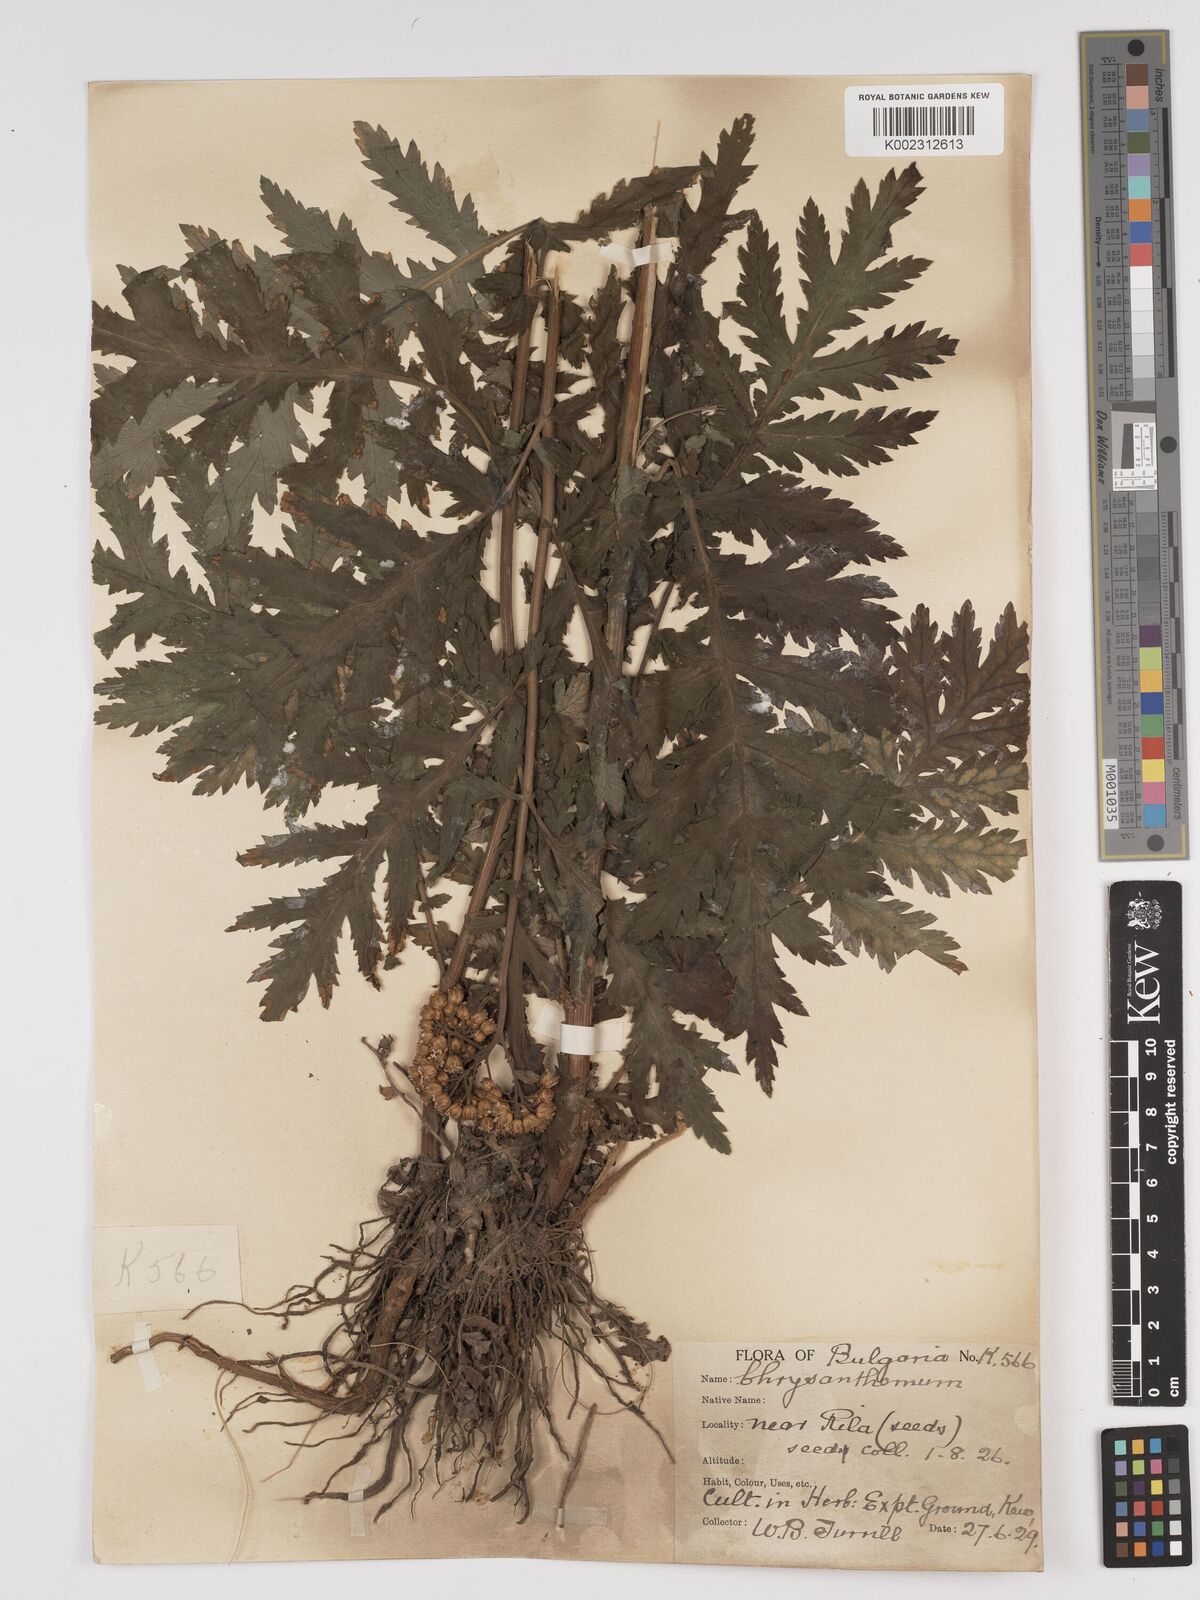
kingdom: Plantae
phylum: Tracheophyta
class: Magnoliopsida
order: Asterales
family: Asteraceae
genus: Tanacetum
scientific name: Tanacetum macrophyllum
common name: Rayed tansy
